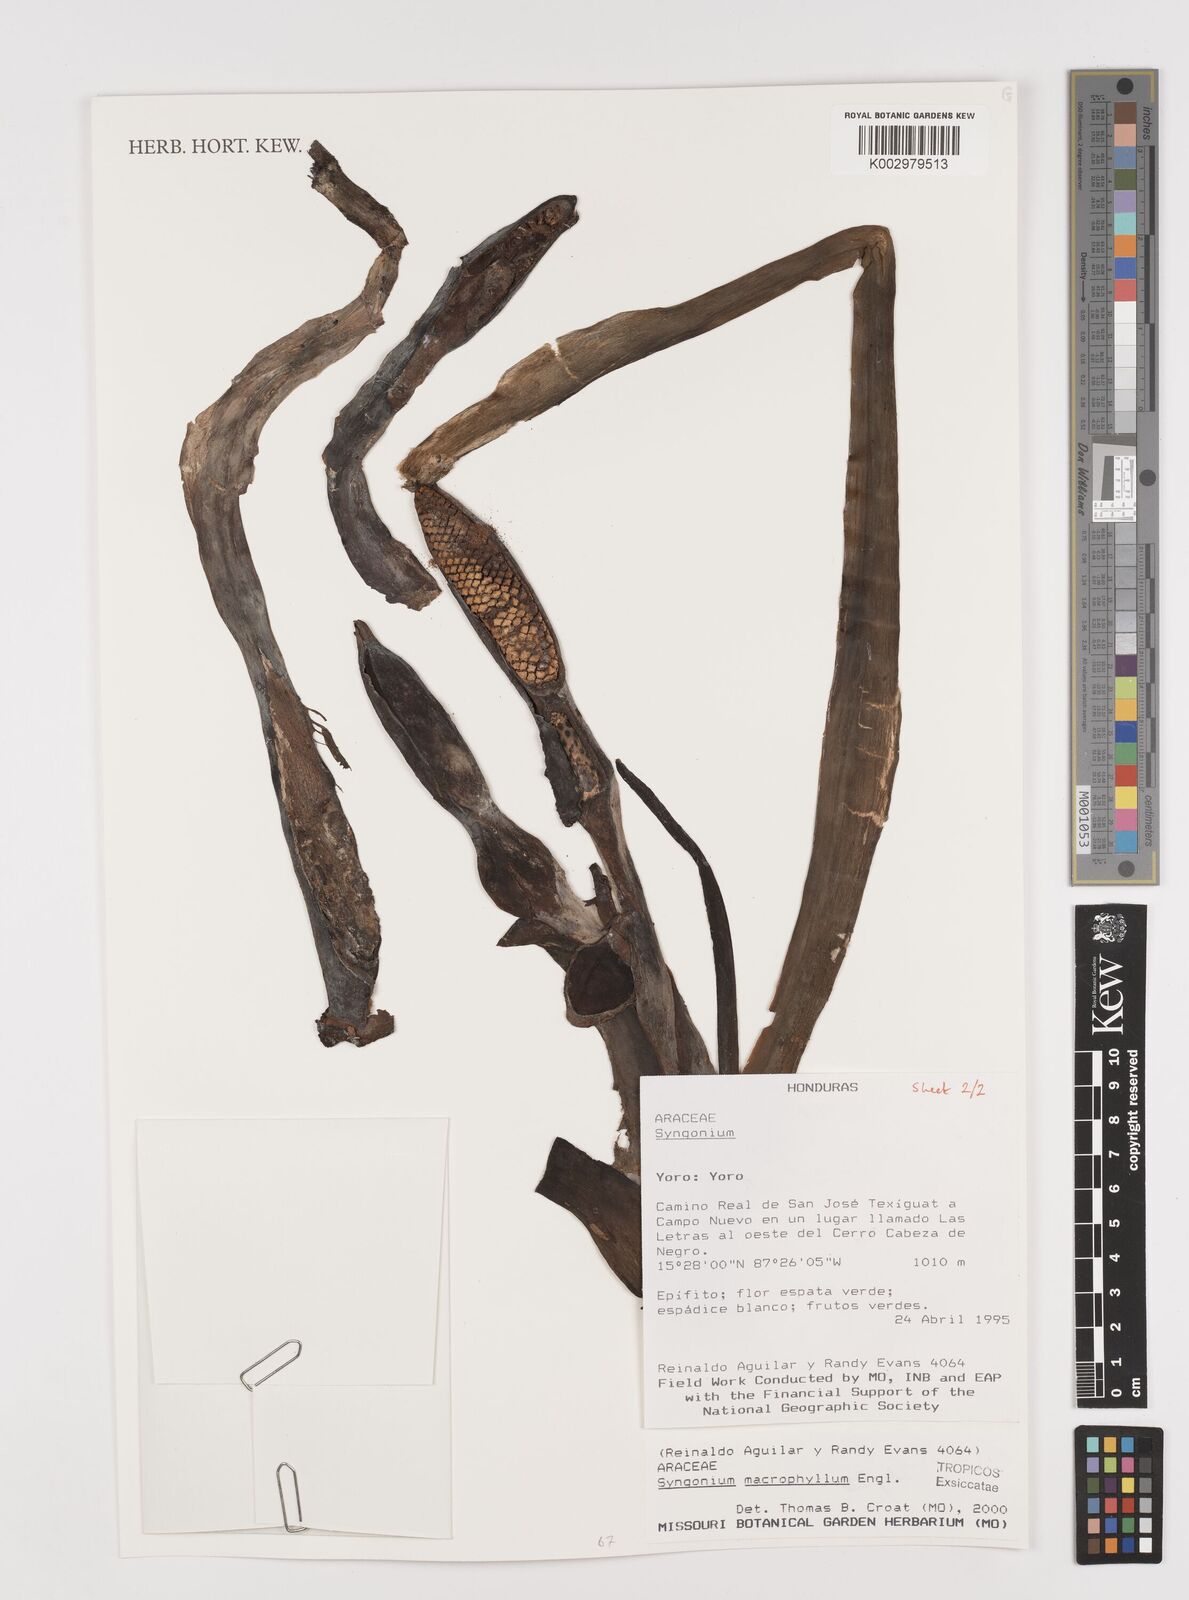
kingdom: Plantae
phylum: Tracheophyta
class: Liliopsida
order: Alismatales
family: Araceae
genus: Syngonium
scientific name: Syngonium macrophyllum
